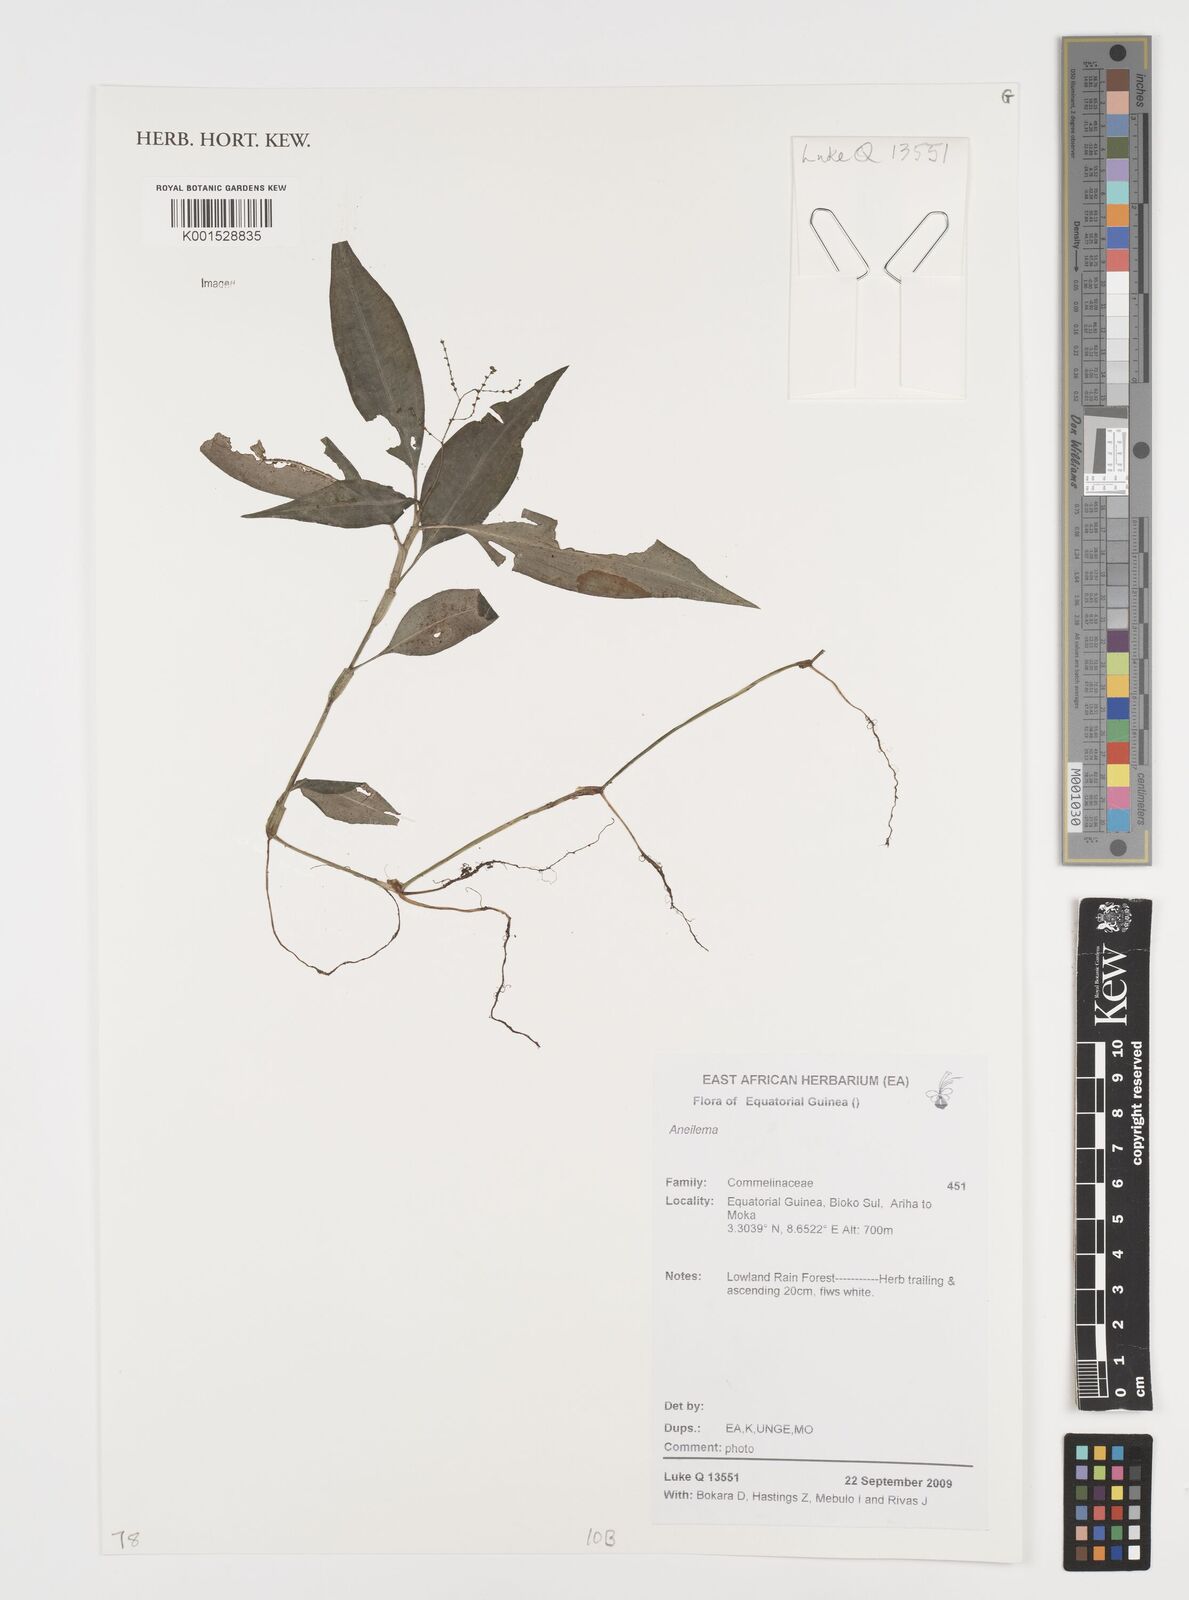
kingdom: Plantae
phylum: Tracheophyta
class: Liliopsida
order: Commelinales
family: Commelinaceae
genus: Aneilema
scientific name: Aneilema
